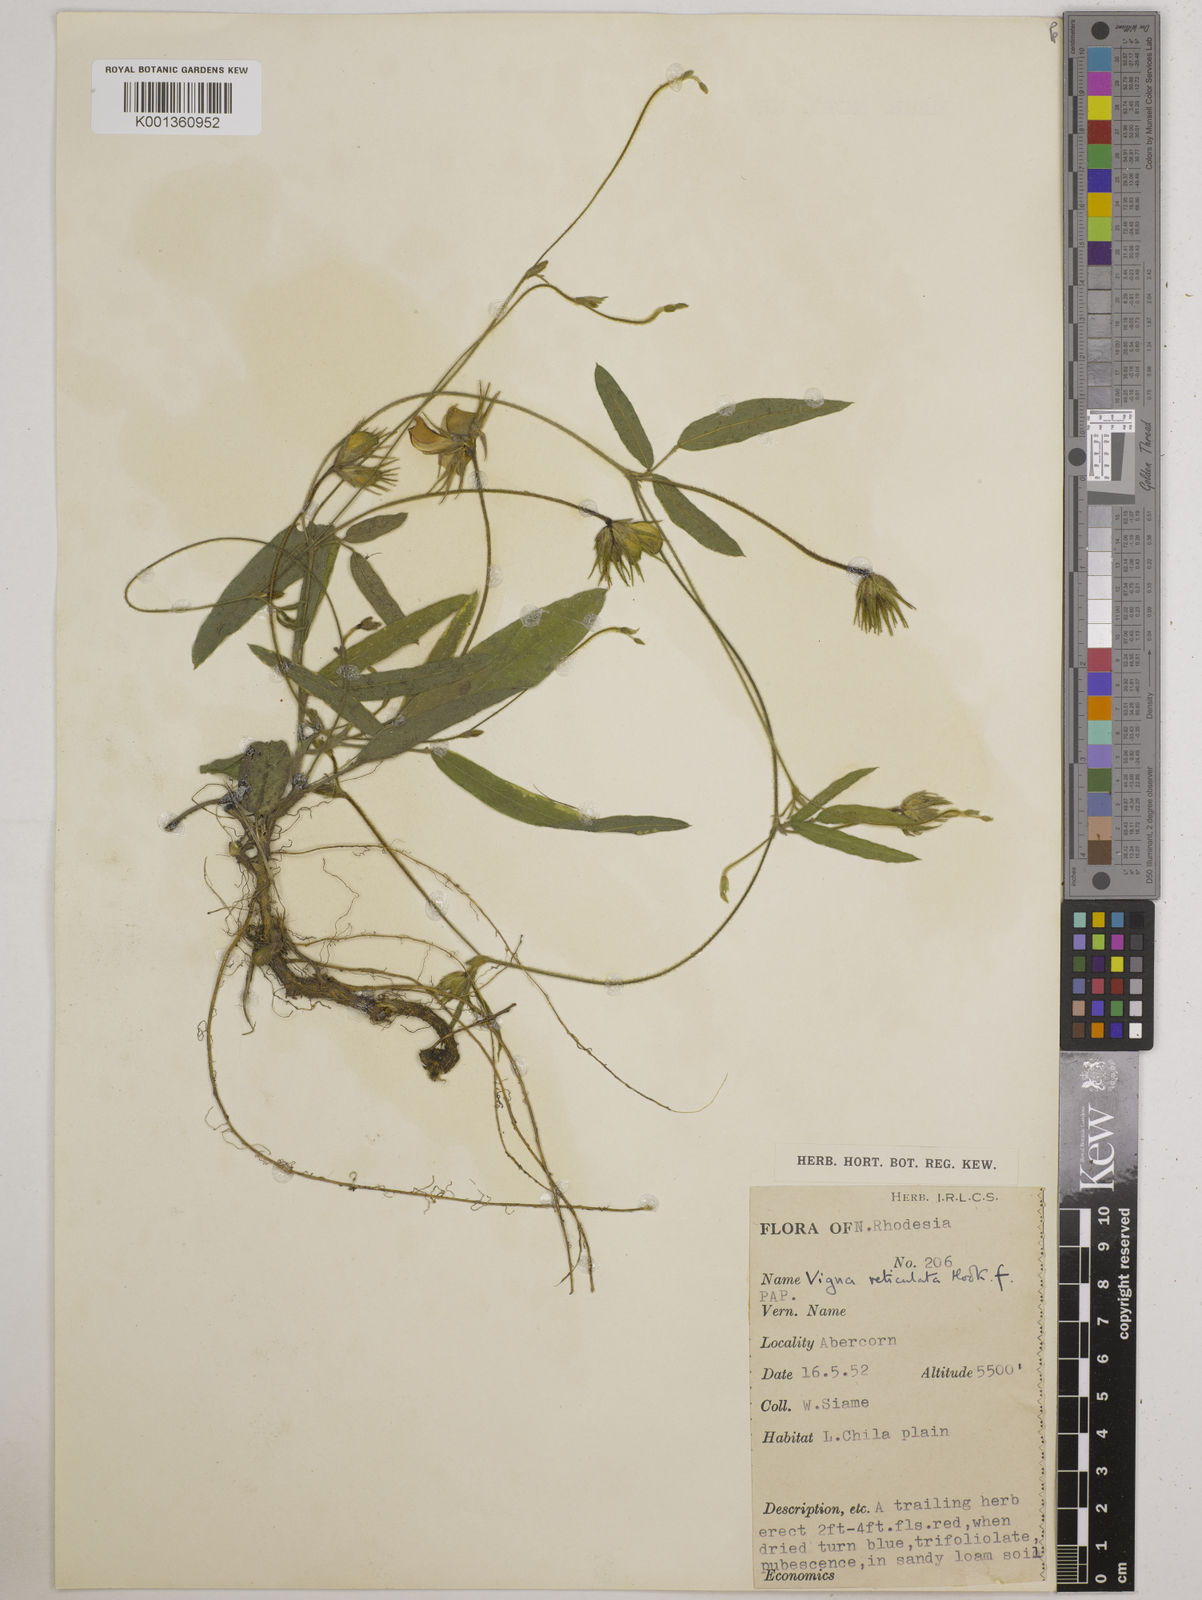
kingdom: Plantae
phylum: Tracheophyta
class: Magnoliopsida
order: Fabales
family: Fabaceae
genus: Vigna
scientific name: Vigna reticulata
